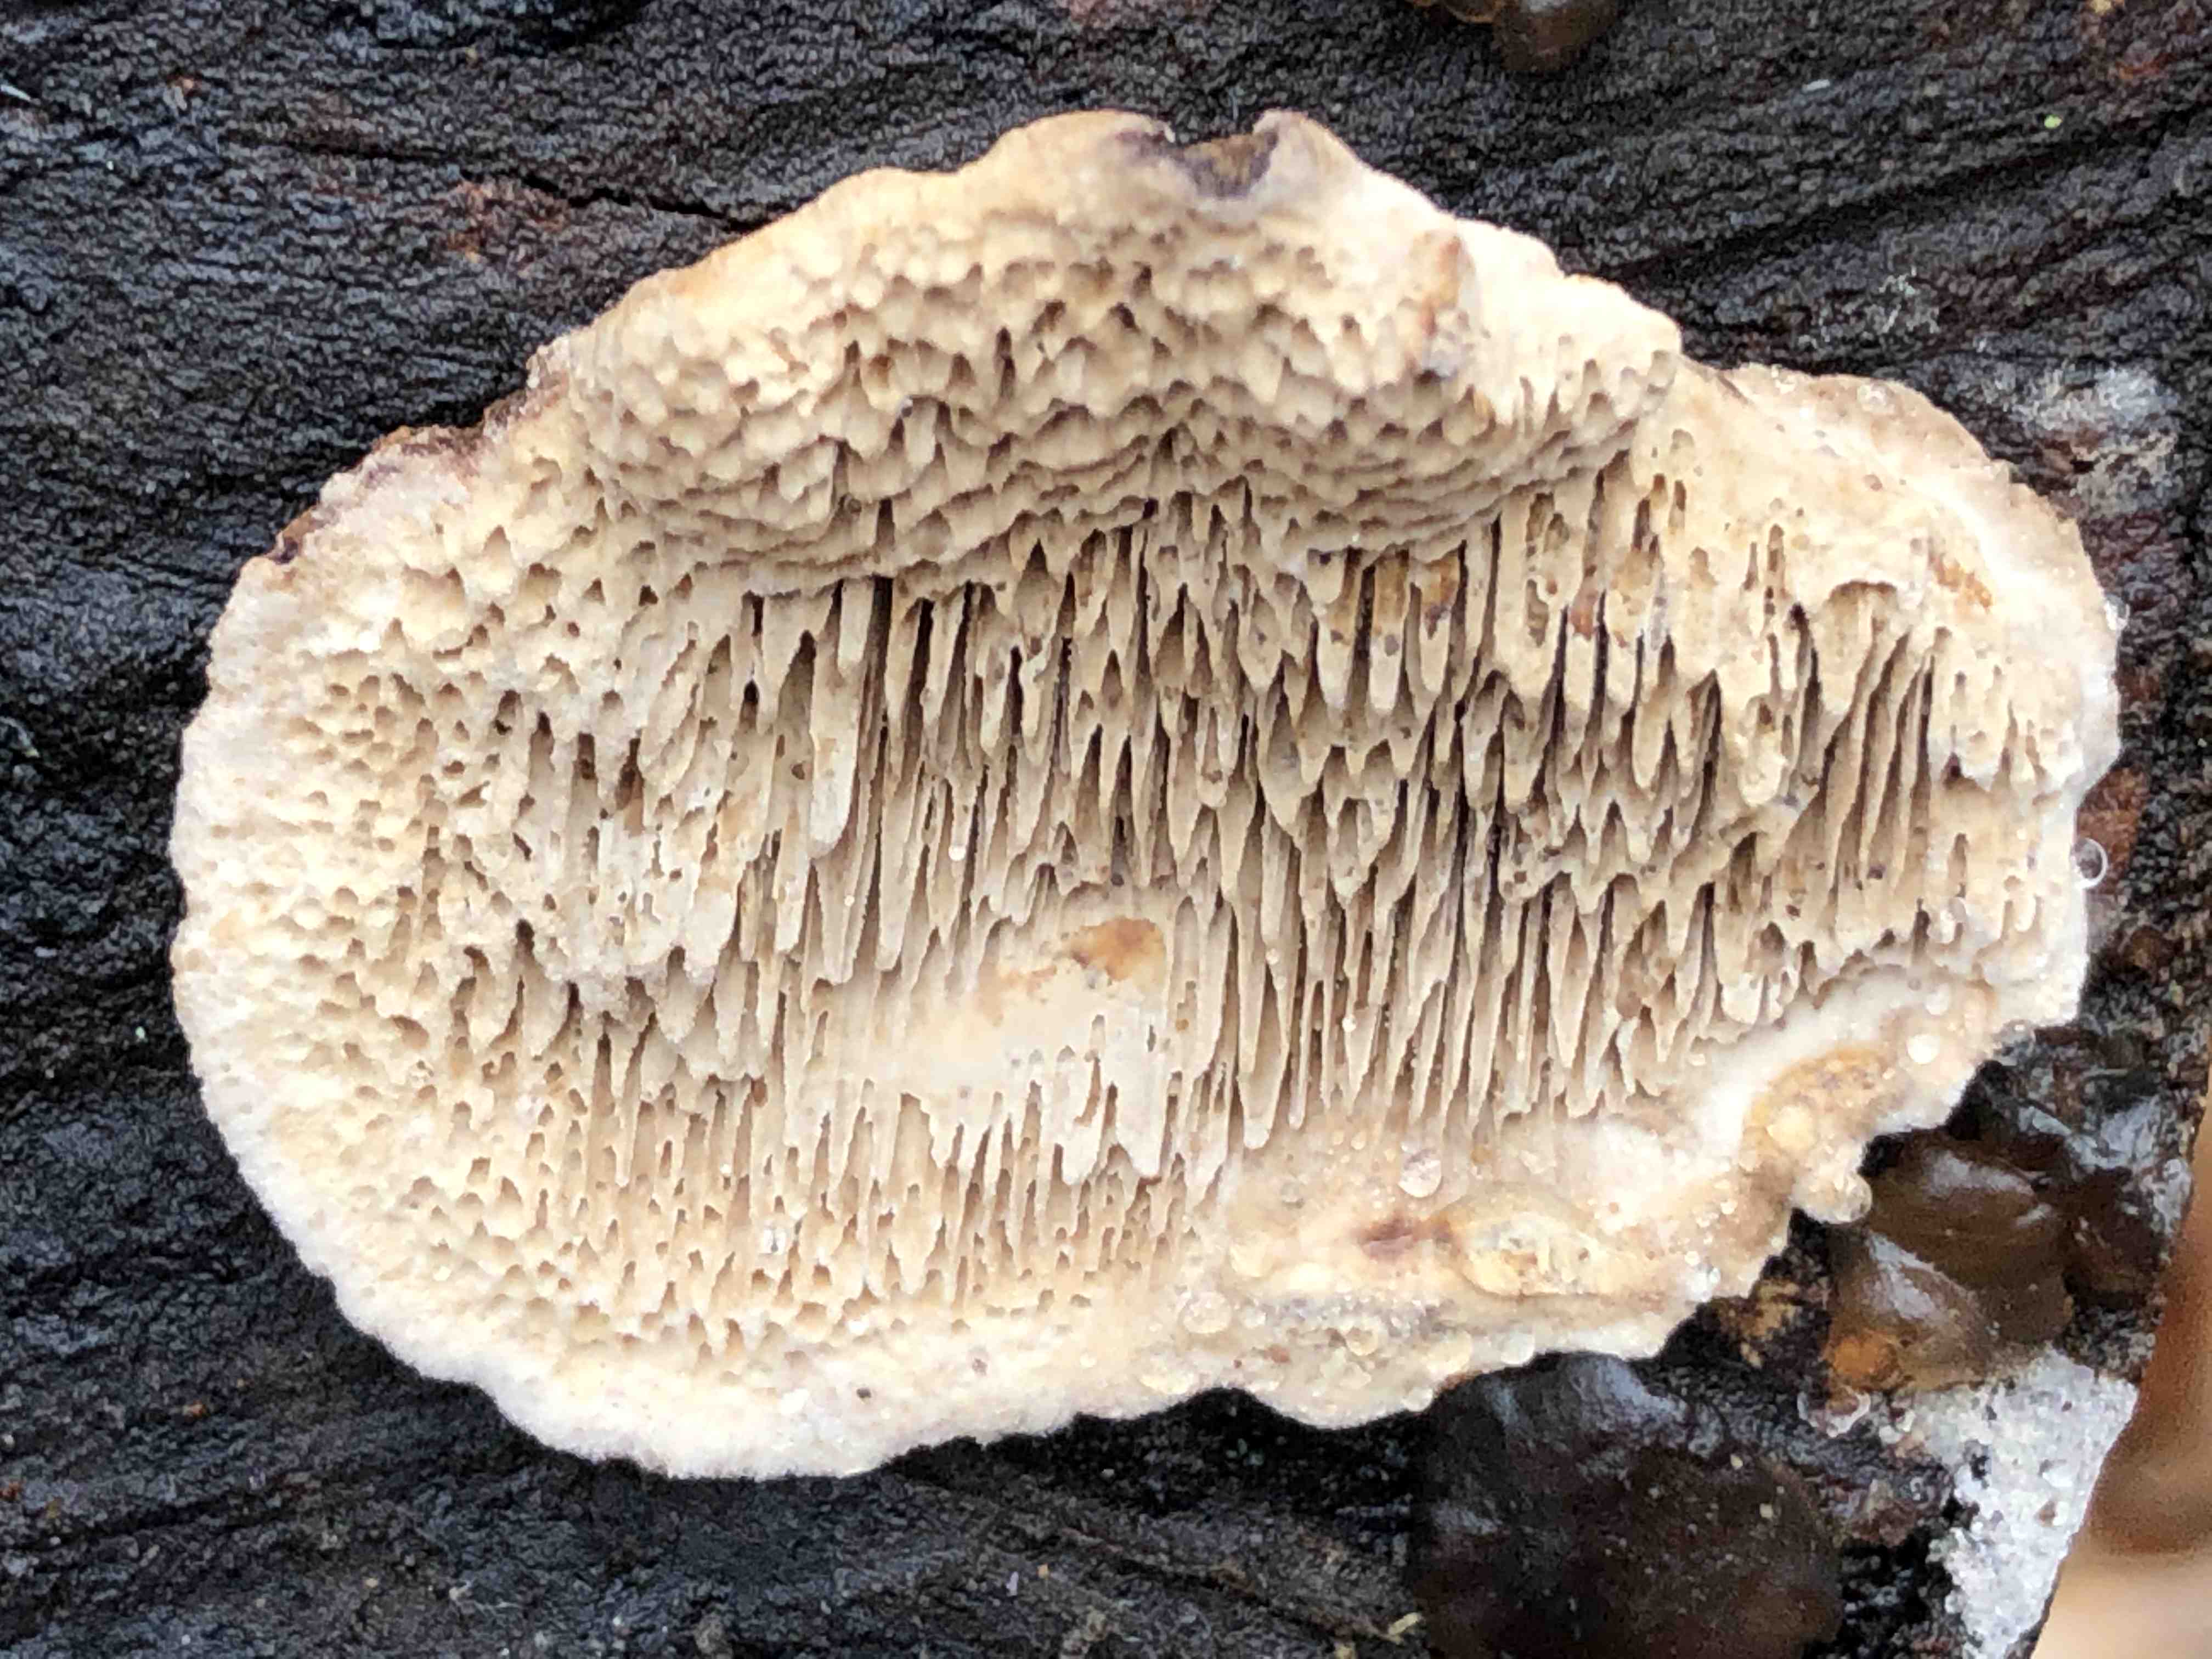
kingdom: Fungi
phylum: Basidiomycota
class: Agaricomycetes
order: Polyporales
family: Polyporaceae
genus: Podofomes
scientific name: Podofomes mollis
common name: blød begporesvamp
